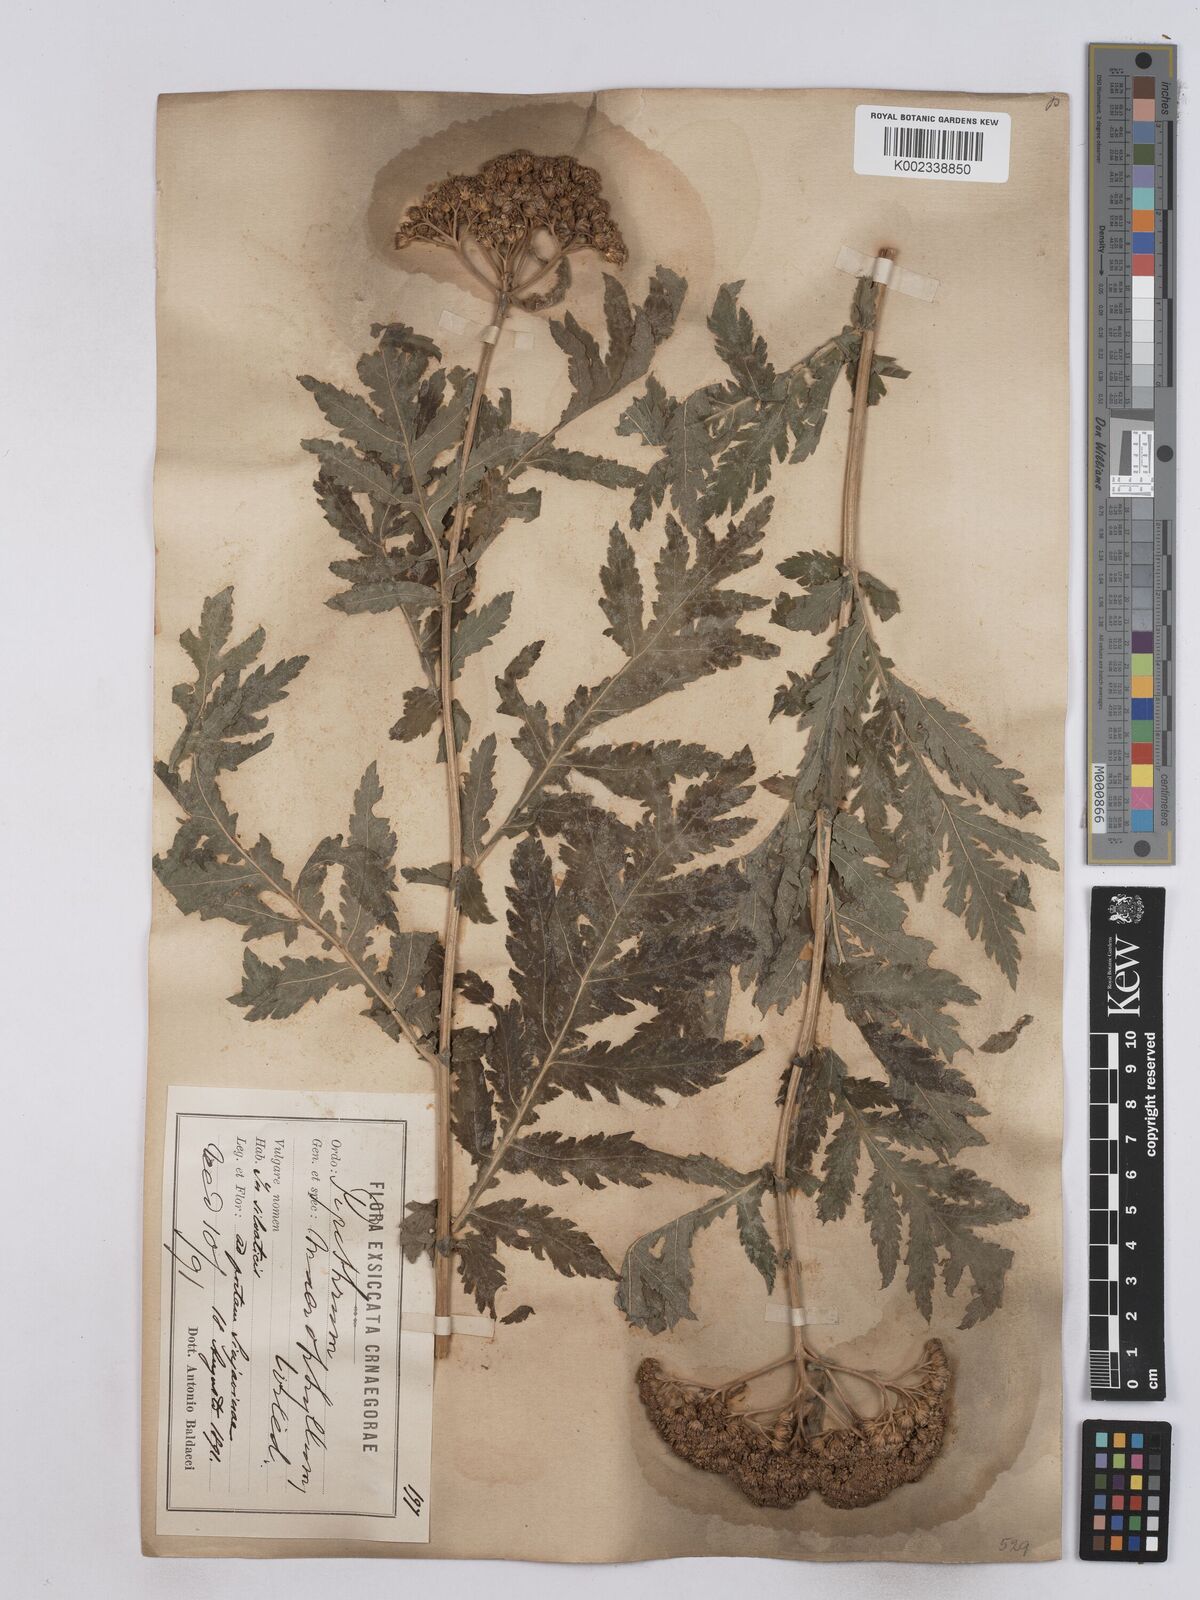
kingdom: Plantae
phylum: Tracheophyta
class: Magnoliopsida
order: Asterales
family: Asteraceae
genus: Tanacetum
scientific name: Tanacetum macrophyllum
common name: Rayed tansy
